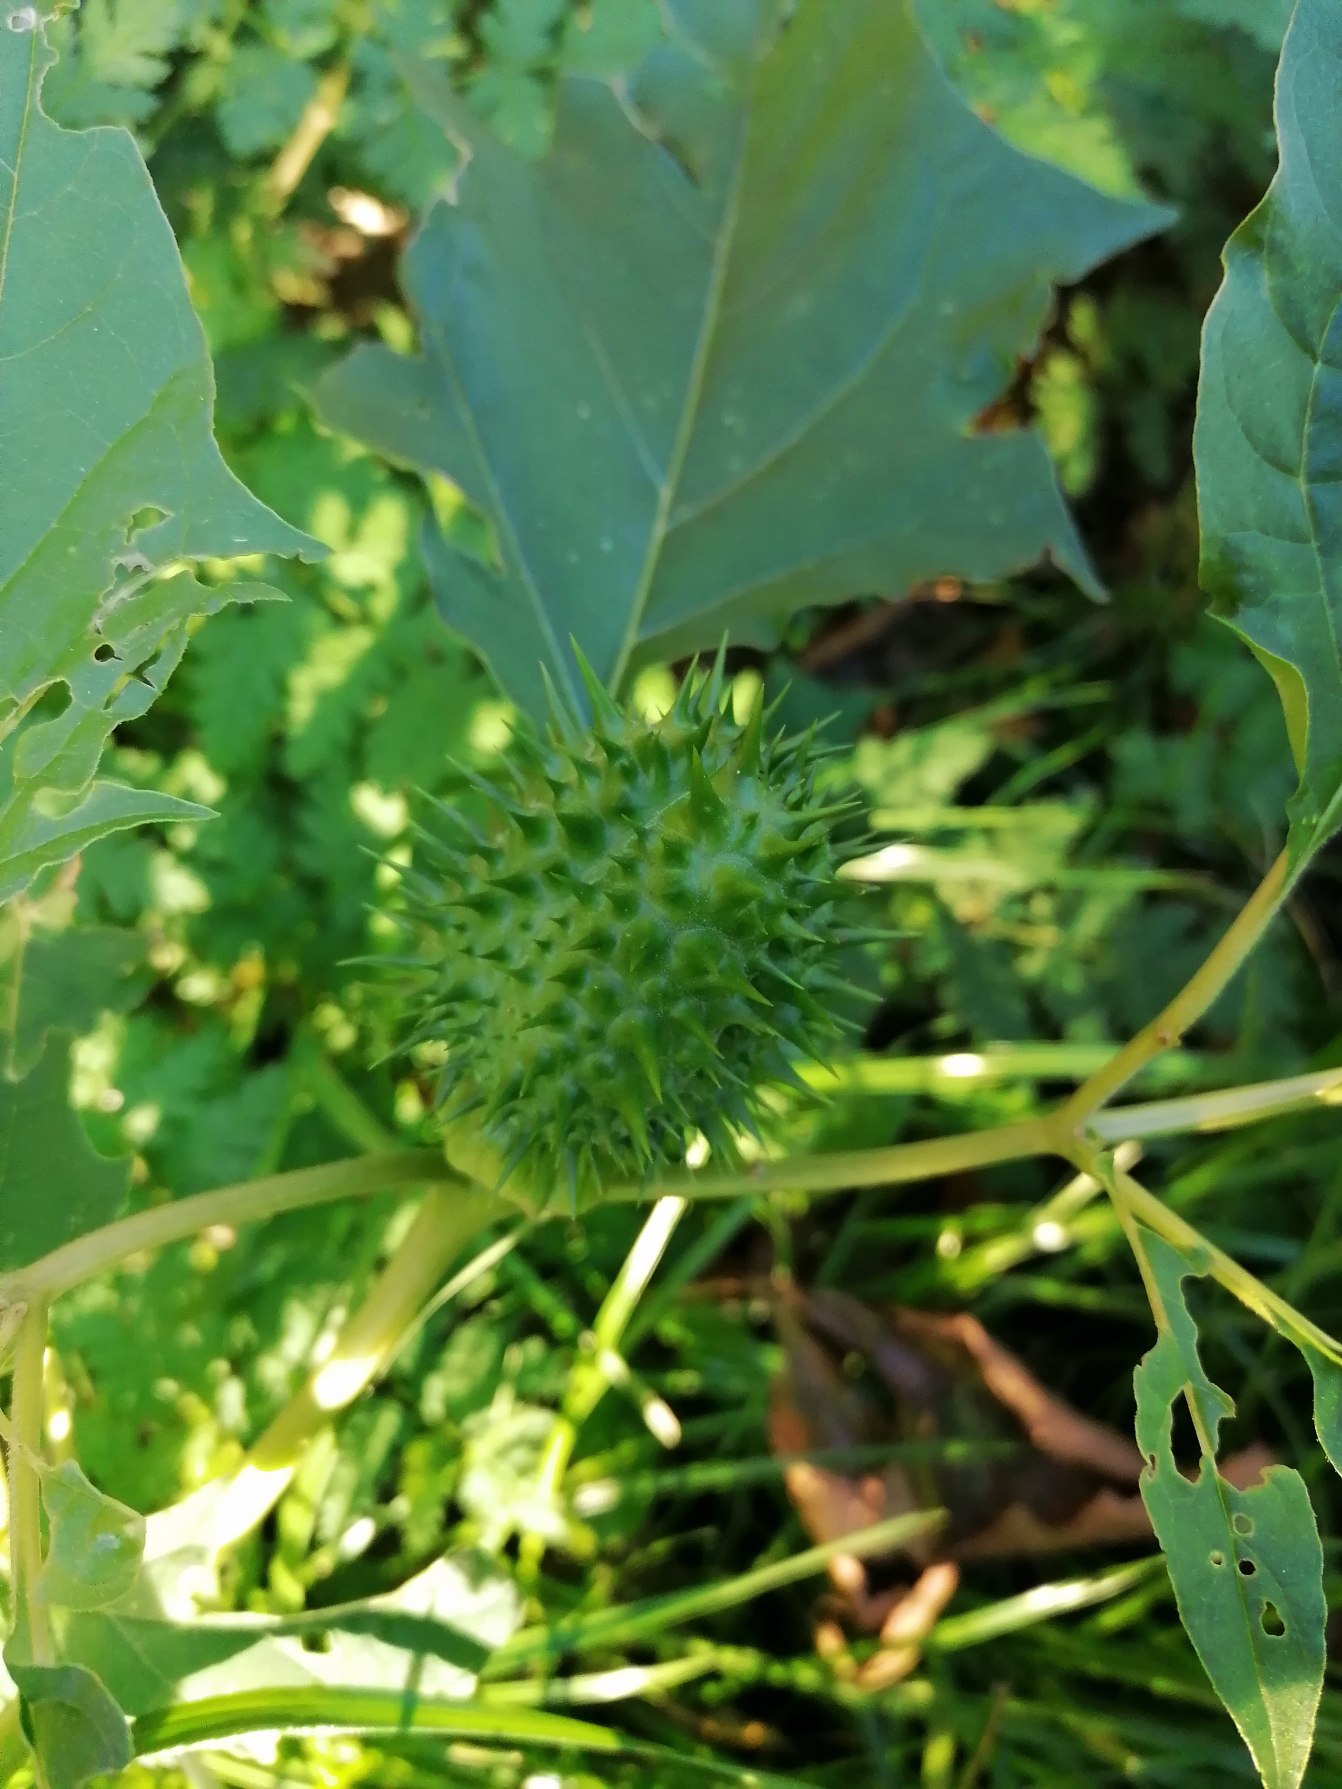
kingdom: Plantae
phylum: Tracheophyta
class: Magnoliopsida
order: Solanales
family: Solanaceae
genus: Datura
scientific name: Datura stramonium
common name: Pigæble
